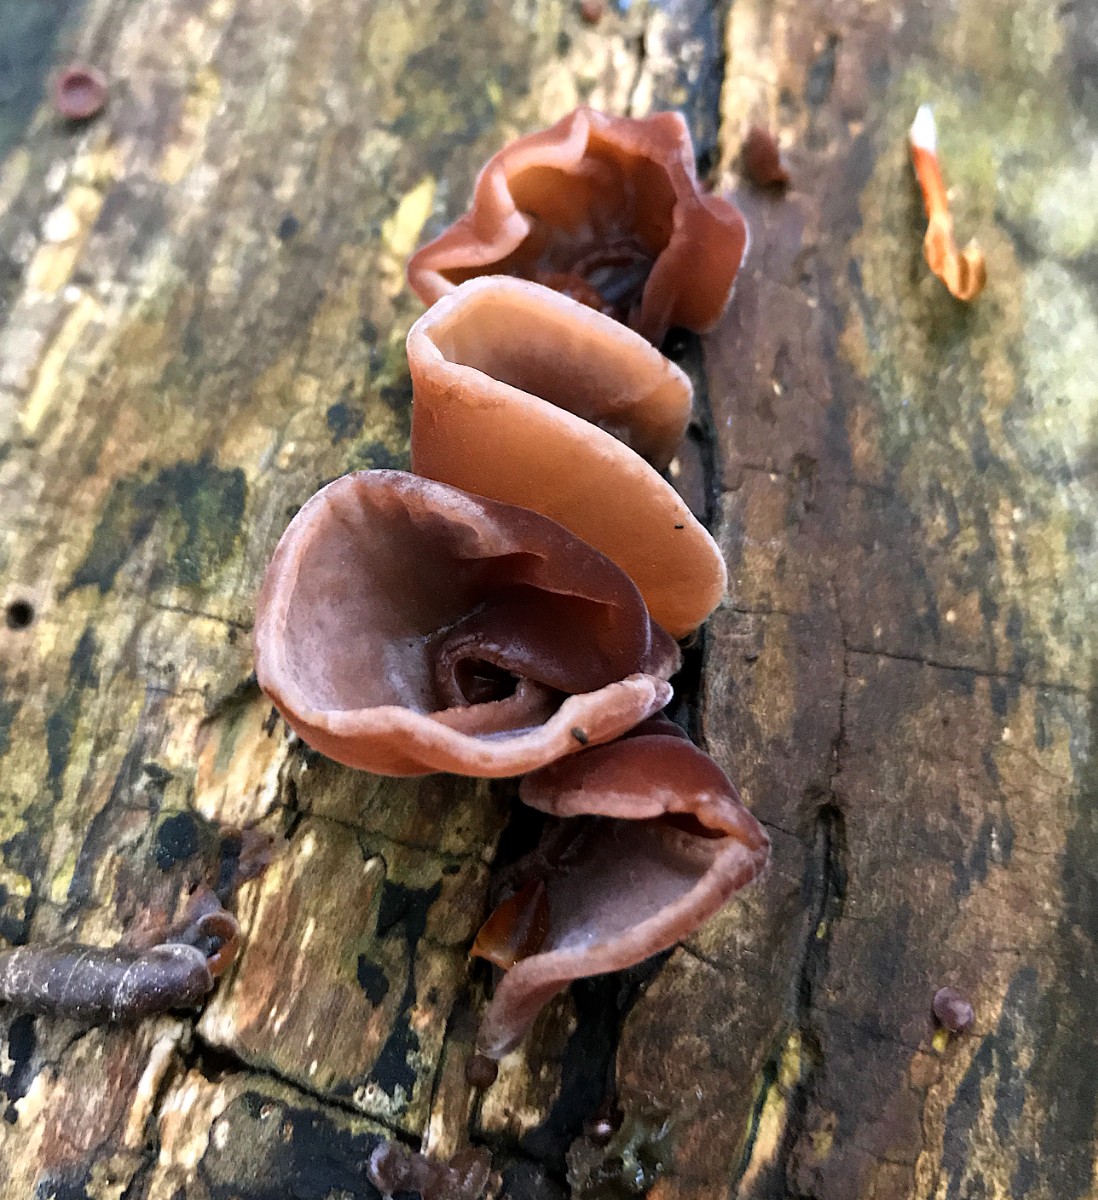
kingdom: Fungi
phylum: Basidiomycota
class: Agaricomycetes
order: Auriculariales
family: Auriculariaceae
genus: Auricularia
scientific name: Auricularia auricula-judae
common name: almindelig judasøre
